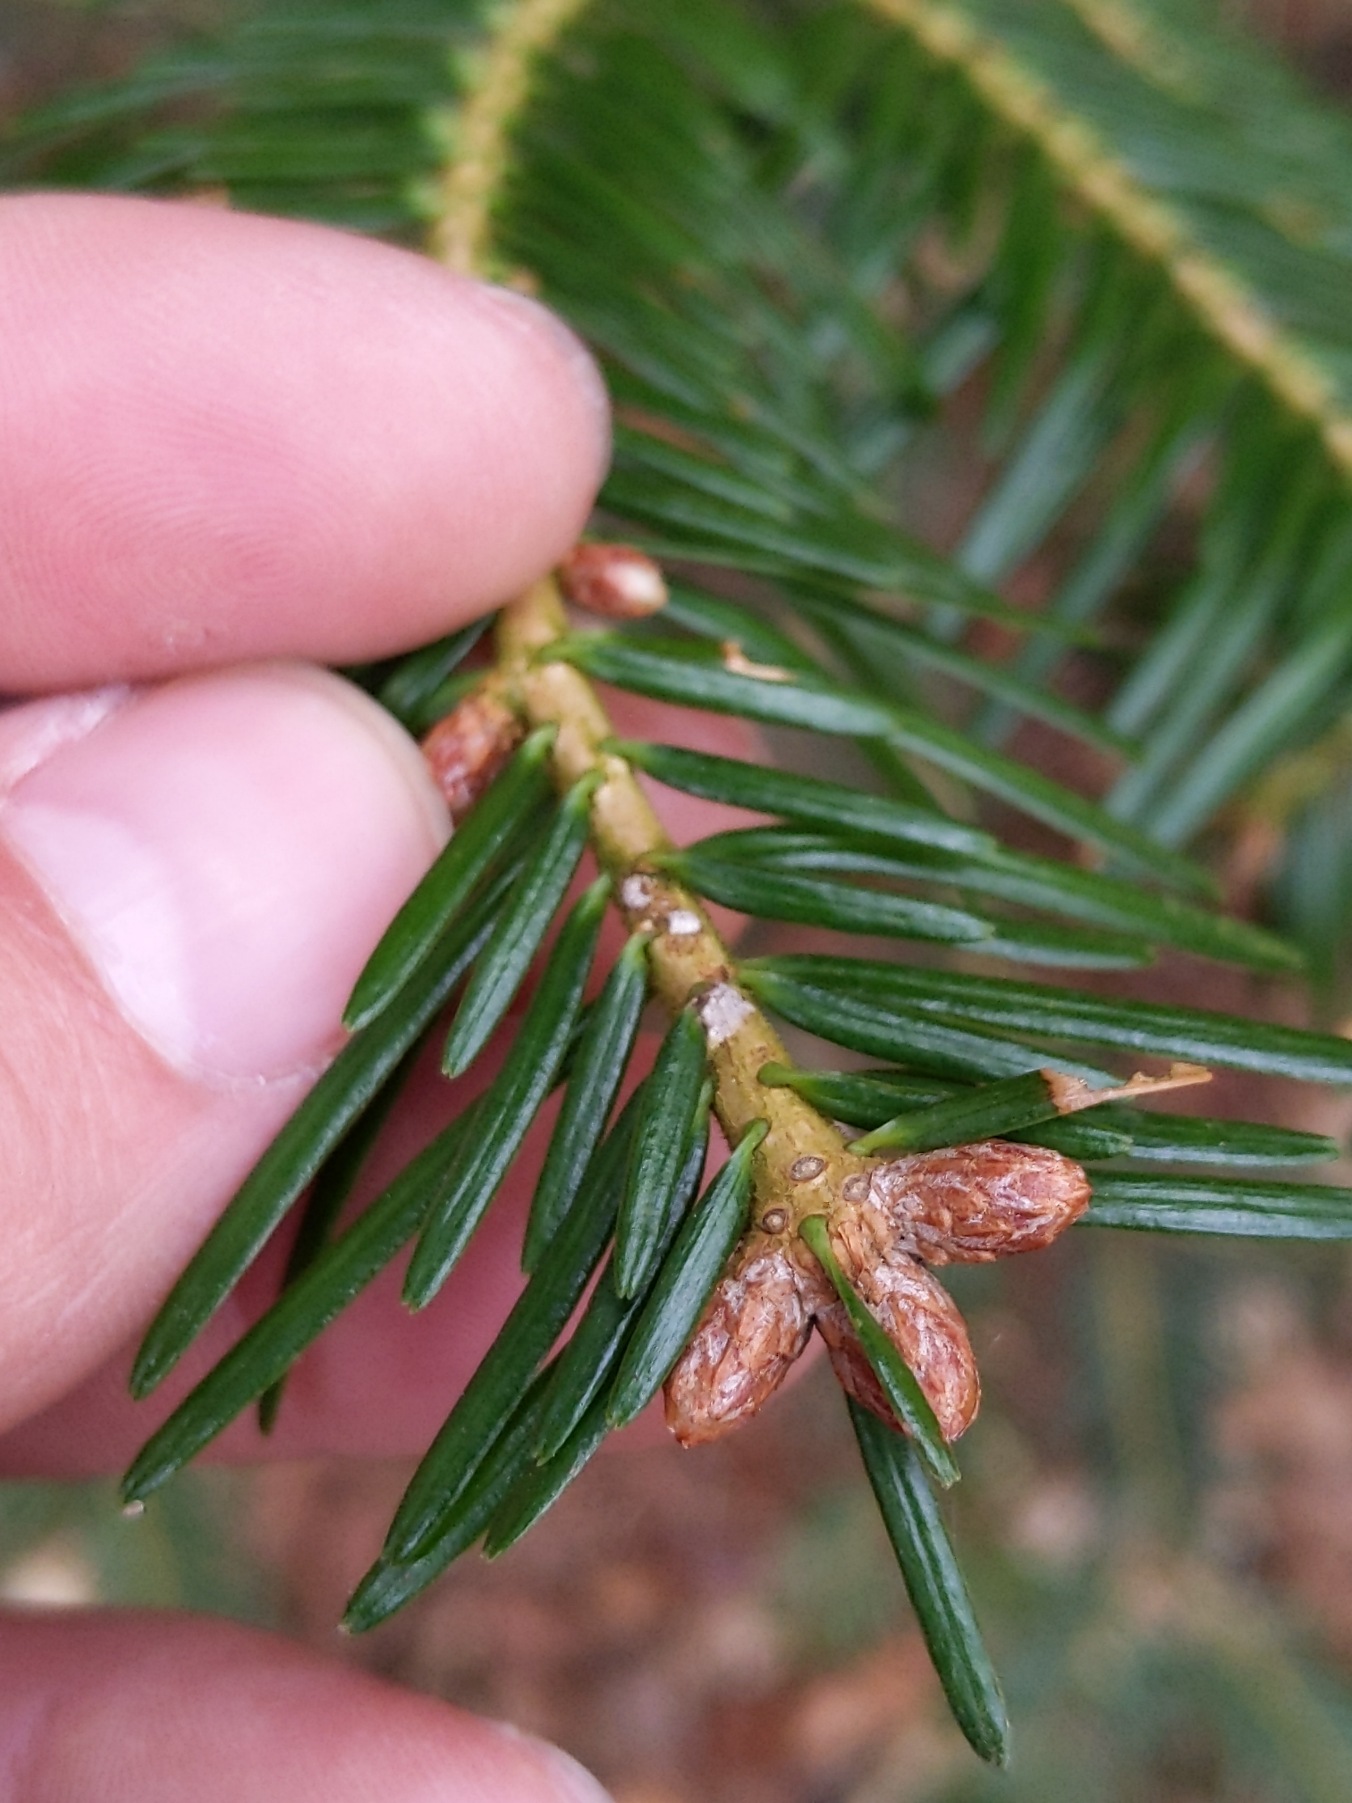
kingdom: Plantae
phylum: Tracheophyta
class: Pinopsida
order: Pinales
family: Pinaceae
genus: Abies
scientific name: Abies alba
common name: Almindelig ædelgran
